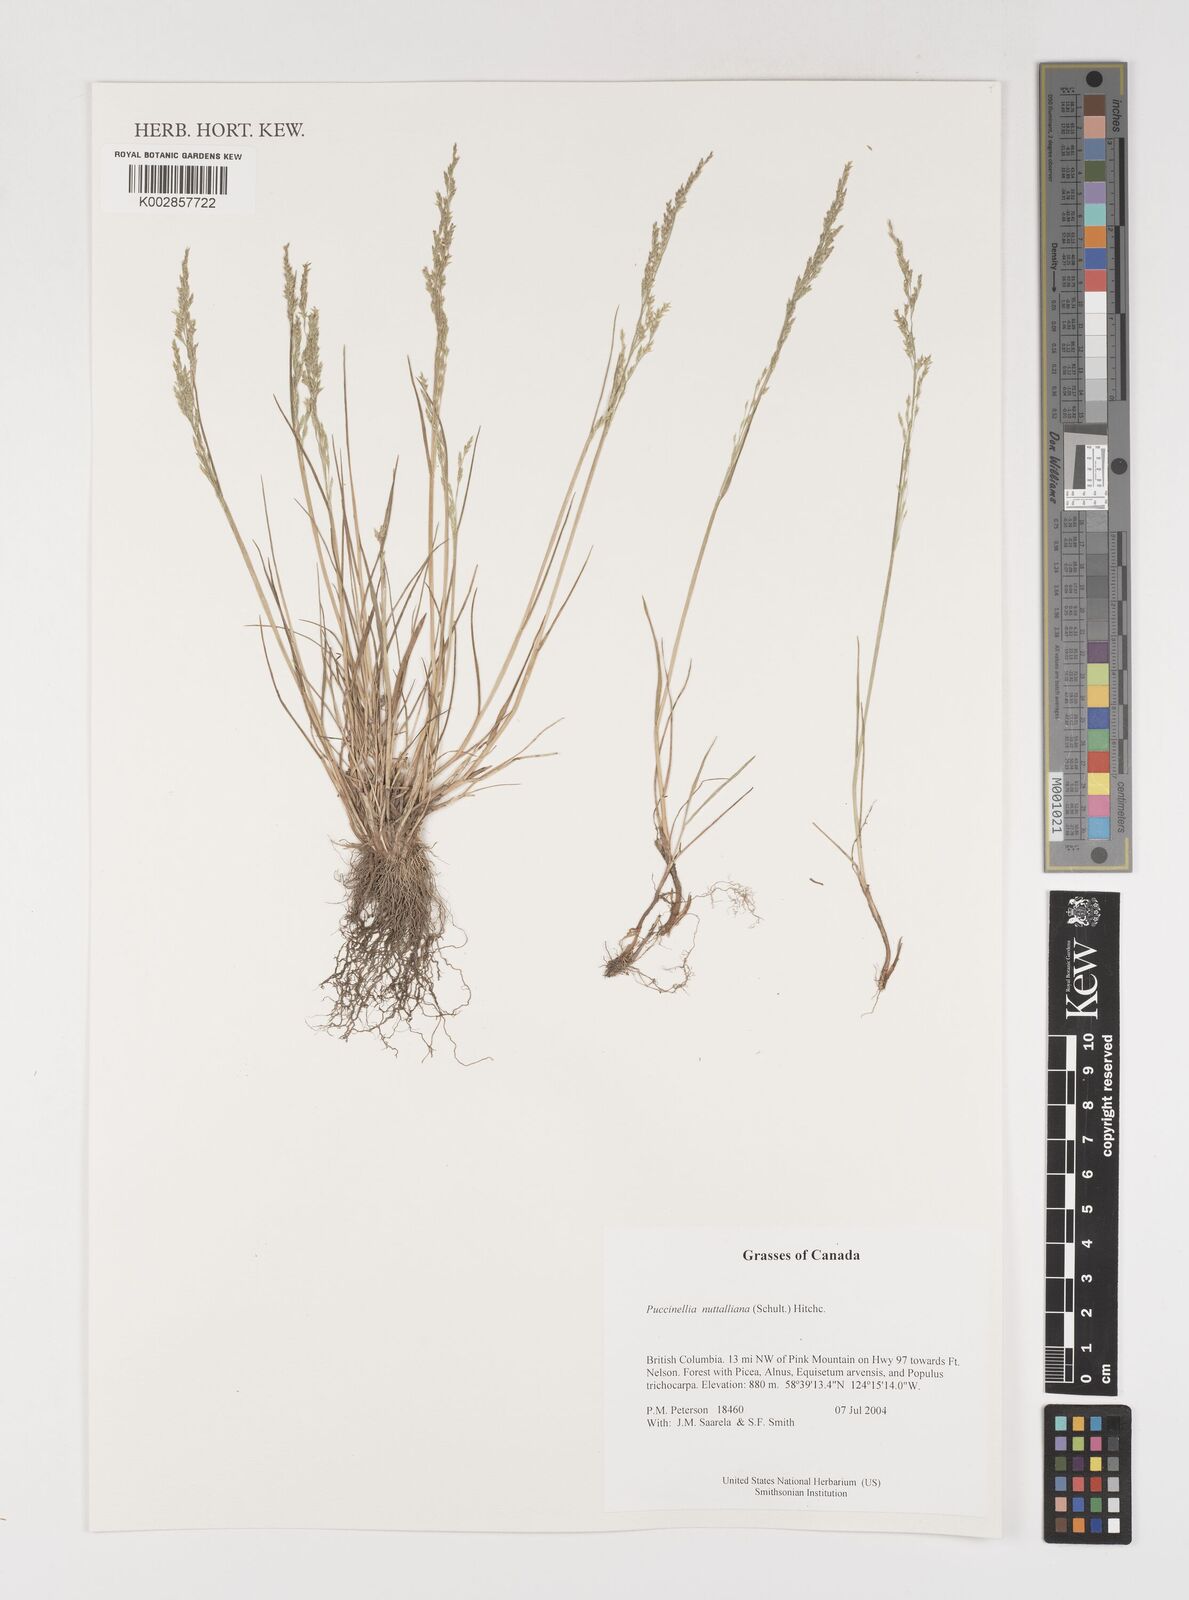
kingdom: Plantae
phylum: Tracheophyta
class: Liliopsida
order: Poales
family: Poaceae
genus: Puccinellia
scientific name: Puccinellia nuttalliana
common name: Nuttall's alkali grass
